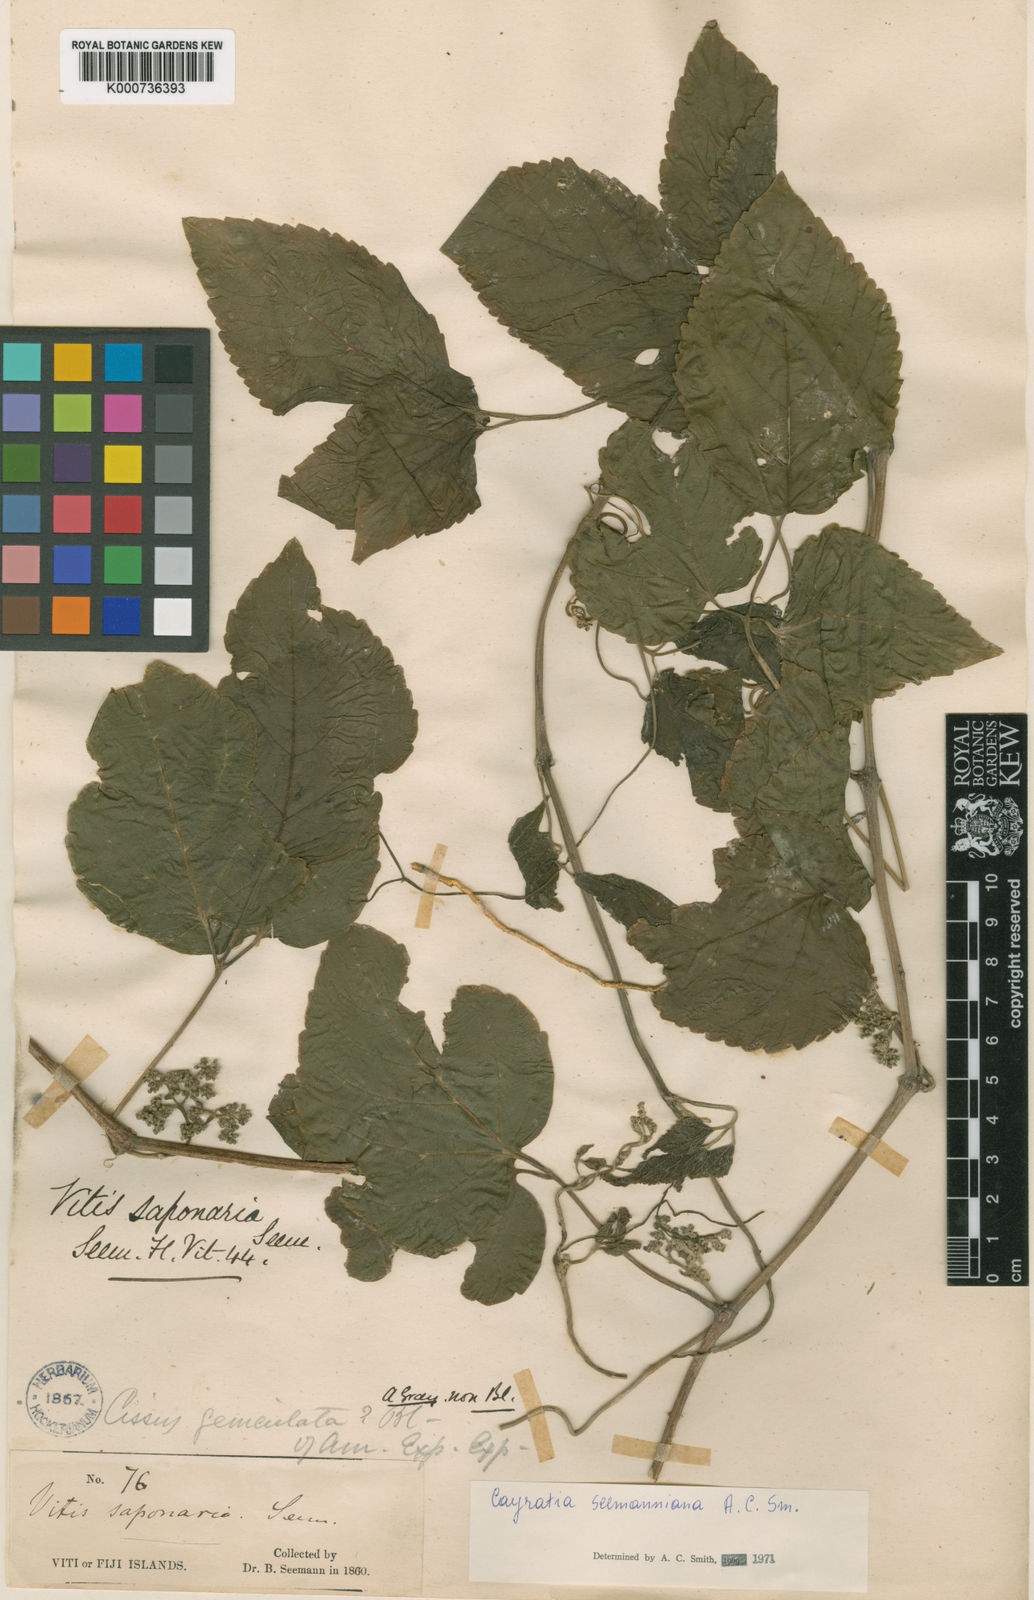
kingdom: Plantae
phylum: Tracheophyta
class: Magnoliopsida
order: Vitales
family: Vitaceae
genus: Cayratia
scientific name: Cayratia seemanniana
